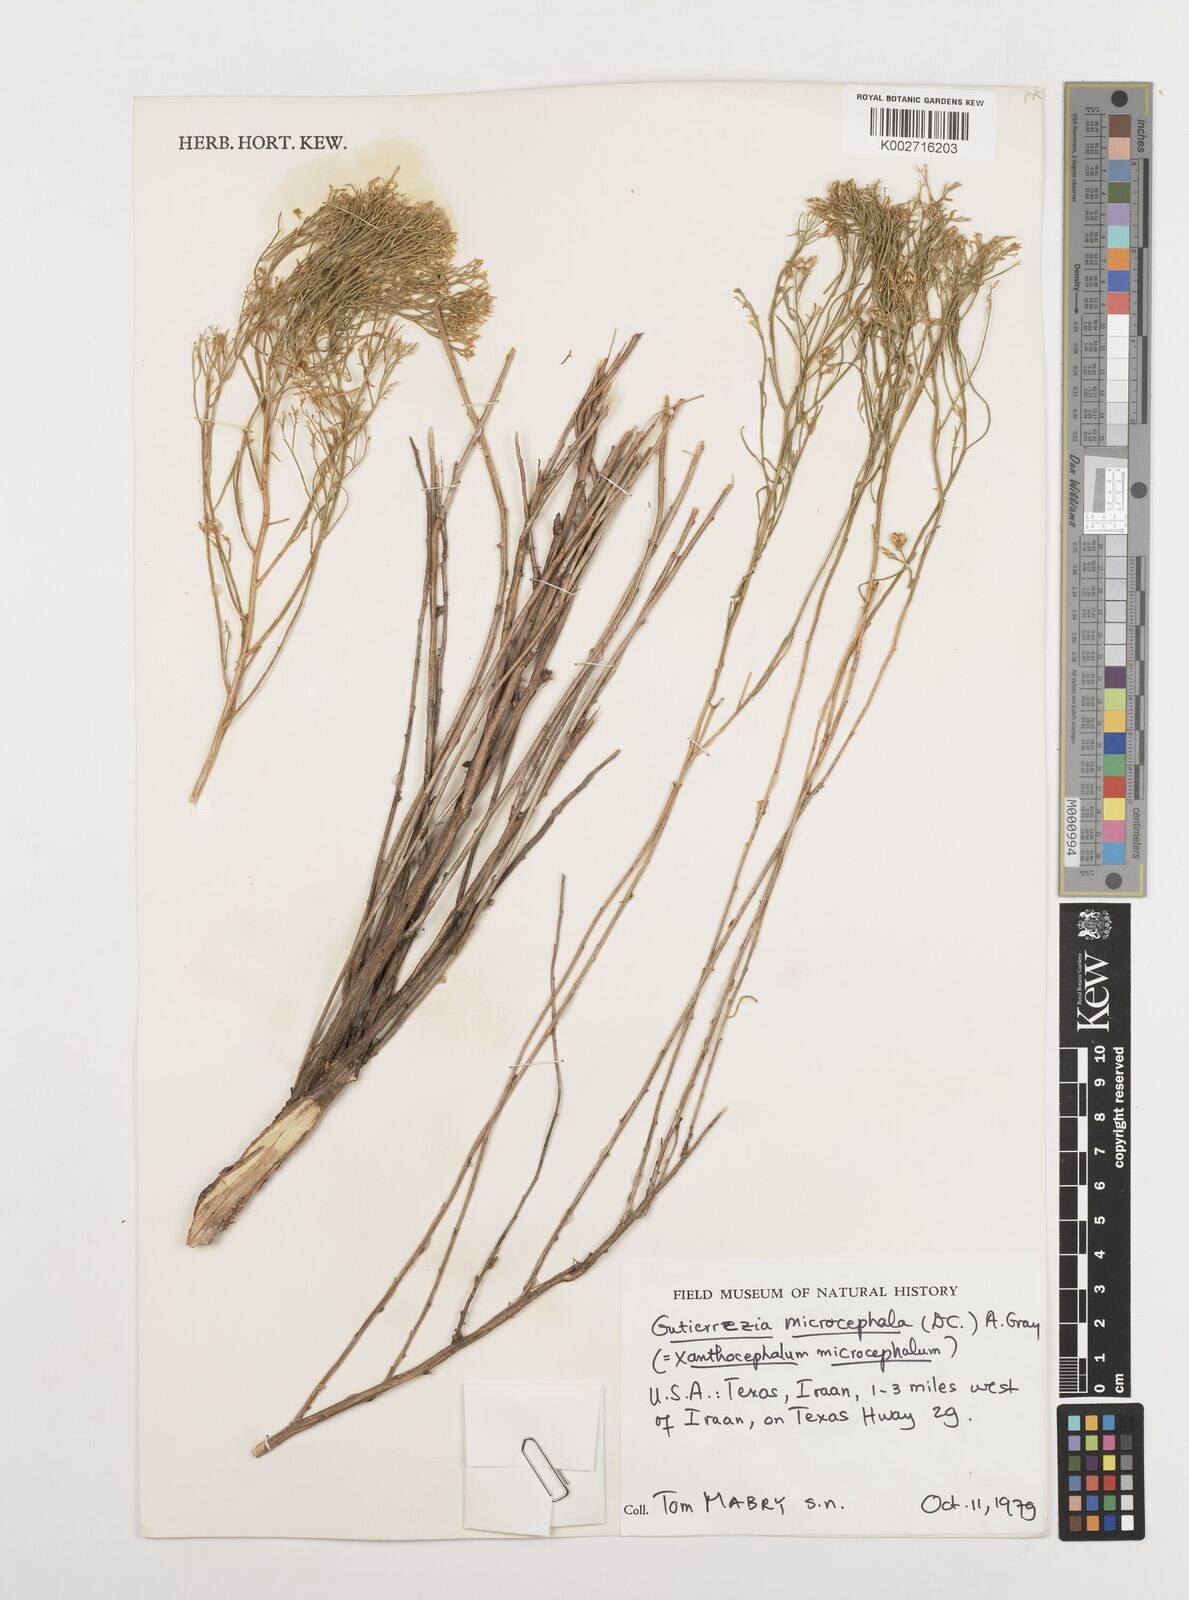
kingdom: Plantae
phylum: Tracheophyta
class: Magnoliopsida
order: Asterales
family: Asteraceae
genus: Gutierrezia
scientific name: Gutierrezia microcephala
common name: Thread snakeweed
